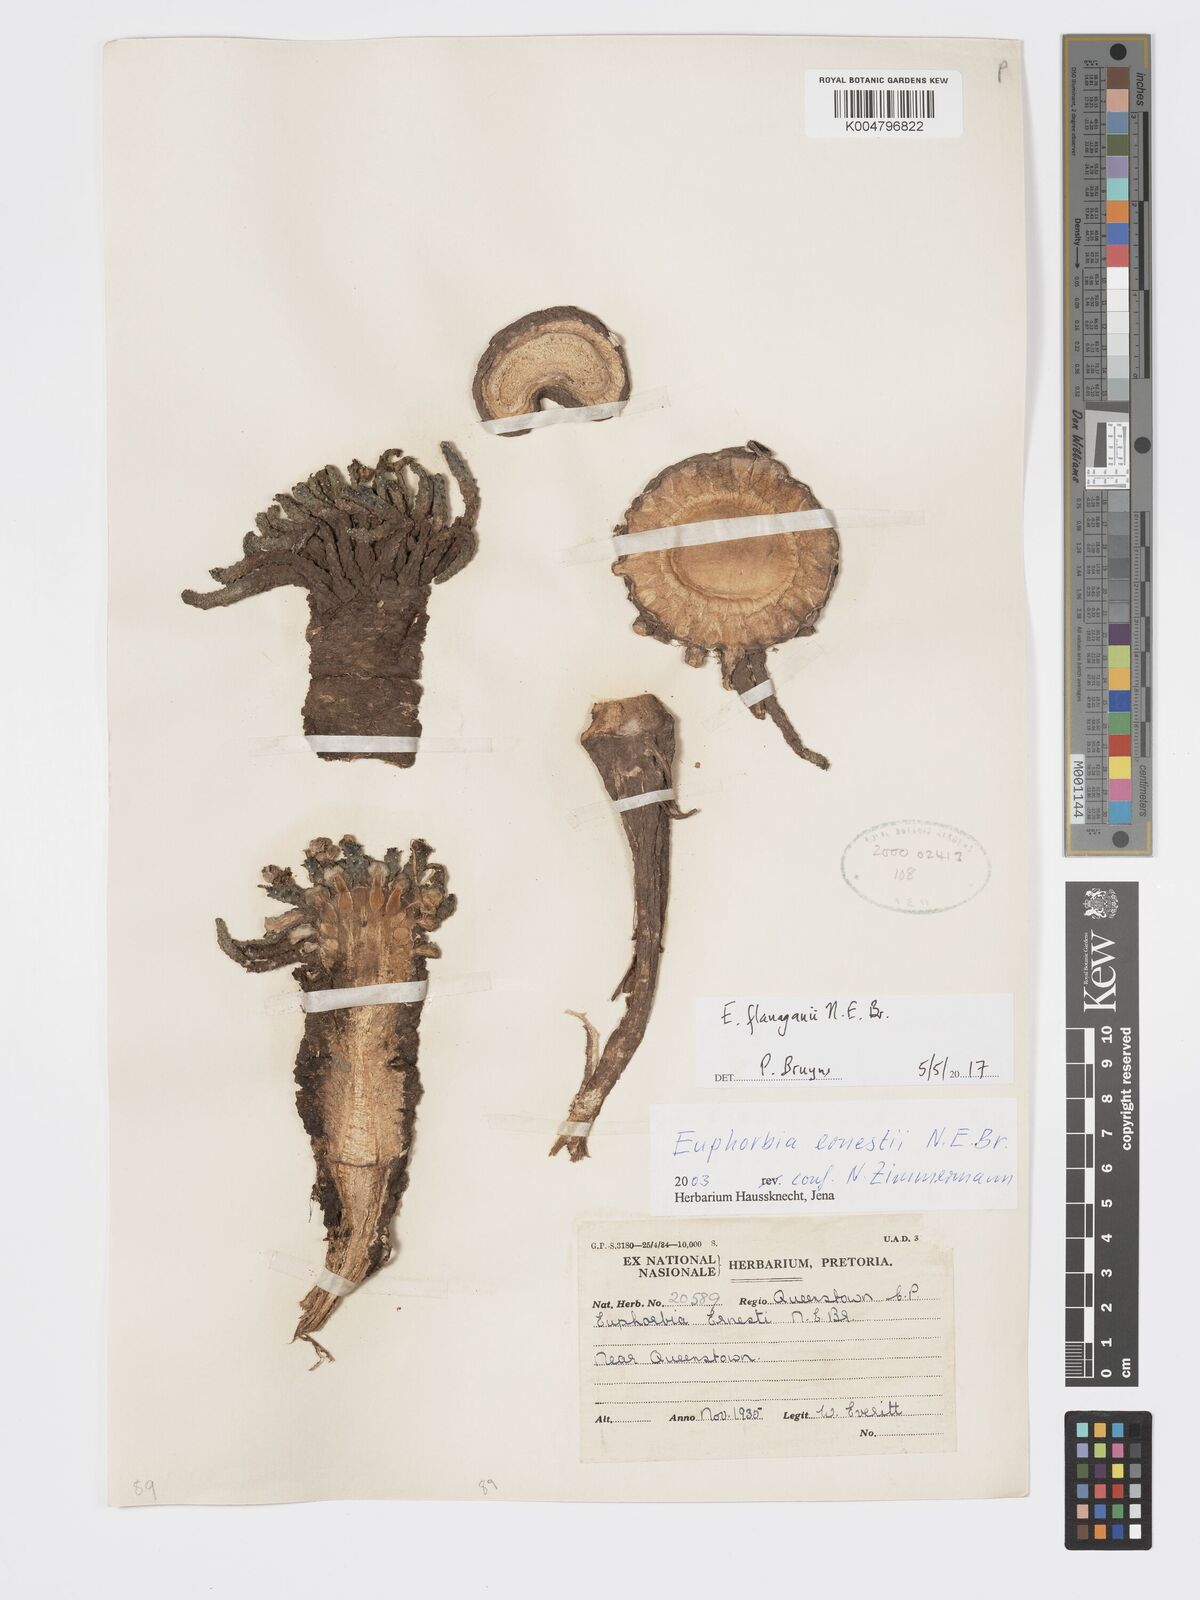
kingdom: Plantae
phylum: Tracheophyta
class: Magnoliopsida
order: Malpighiales
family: Euphorbiaceae
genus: Euphorbia
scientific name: Euphorbia flanaganii
